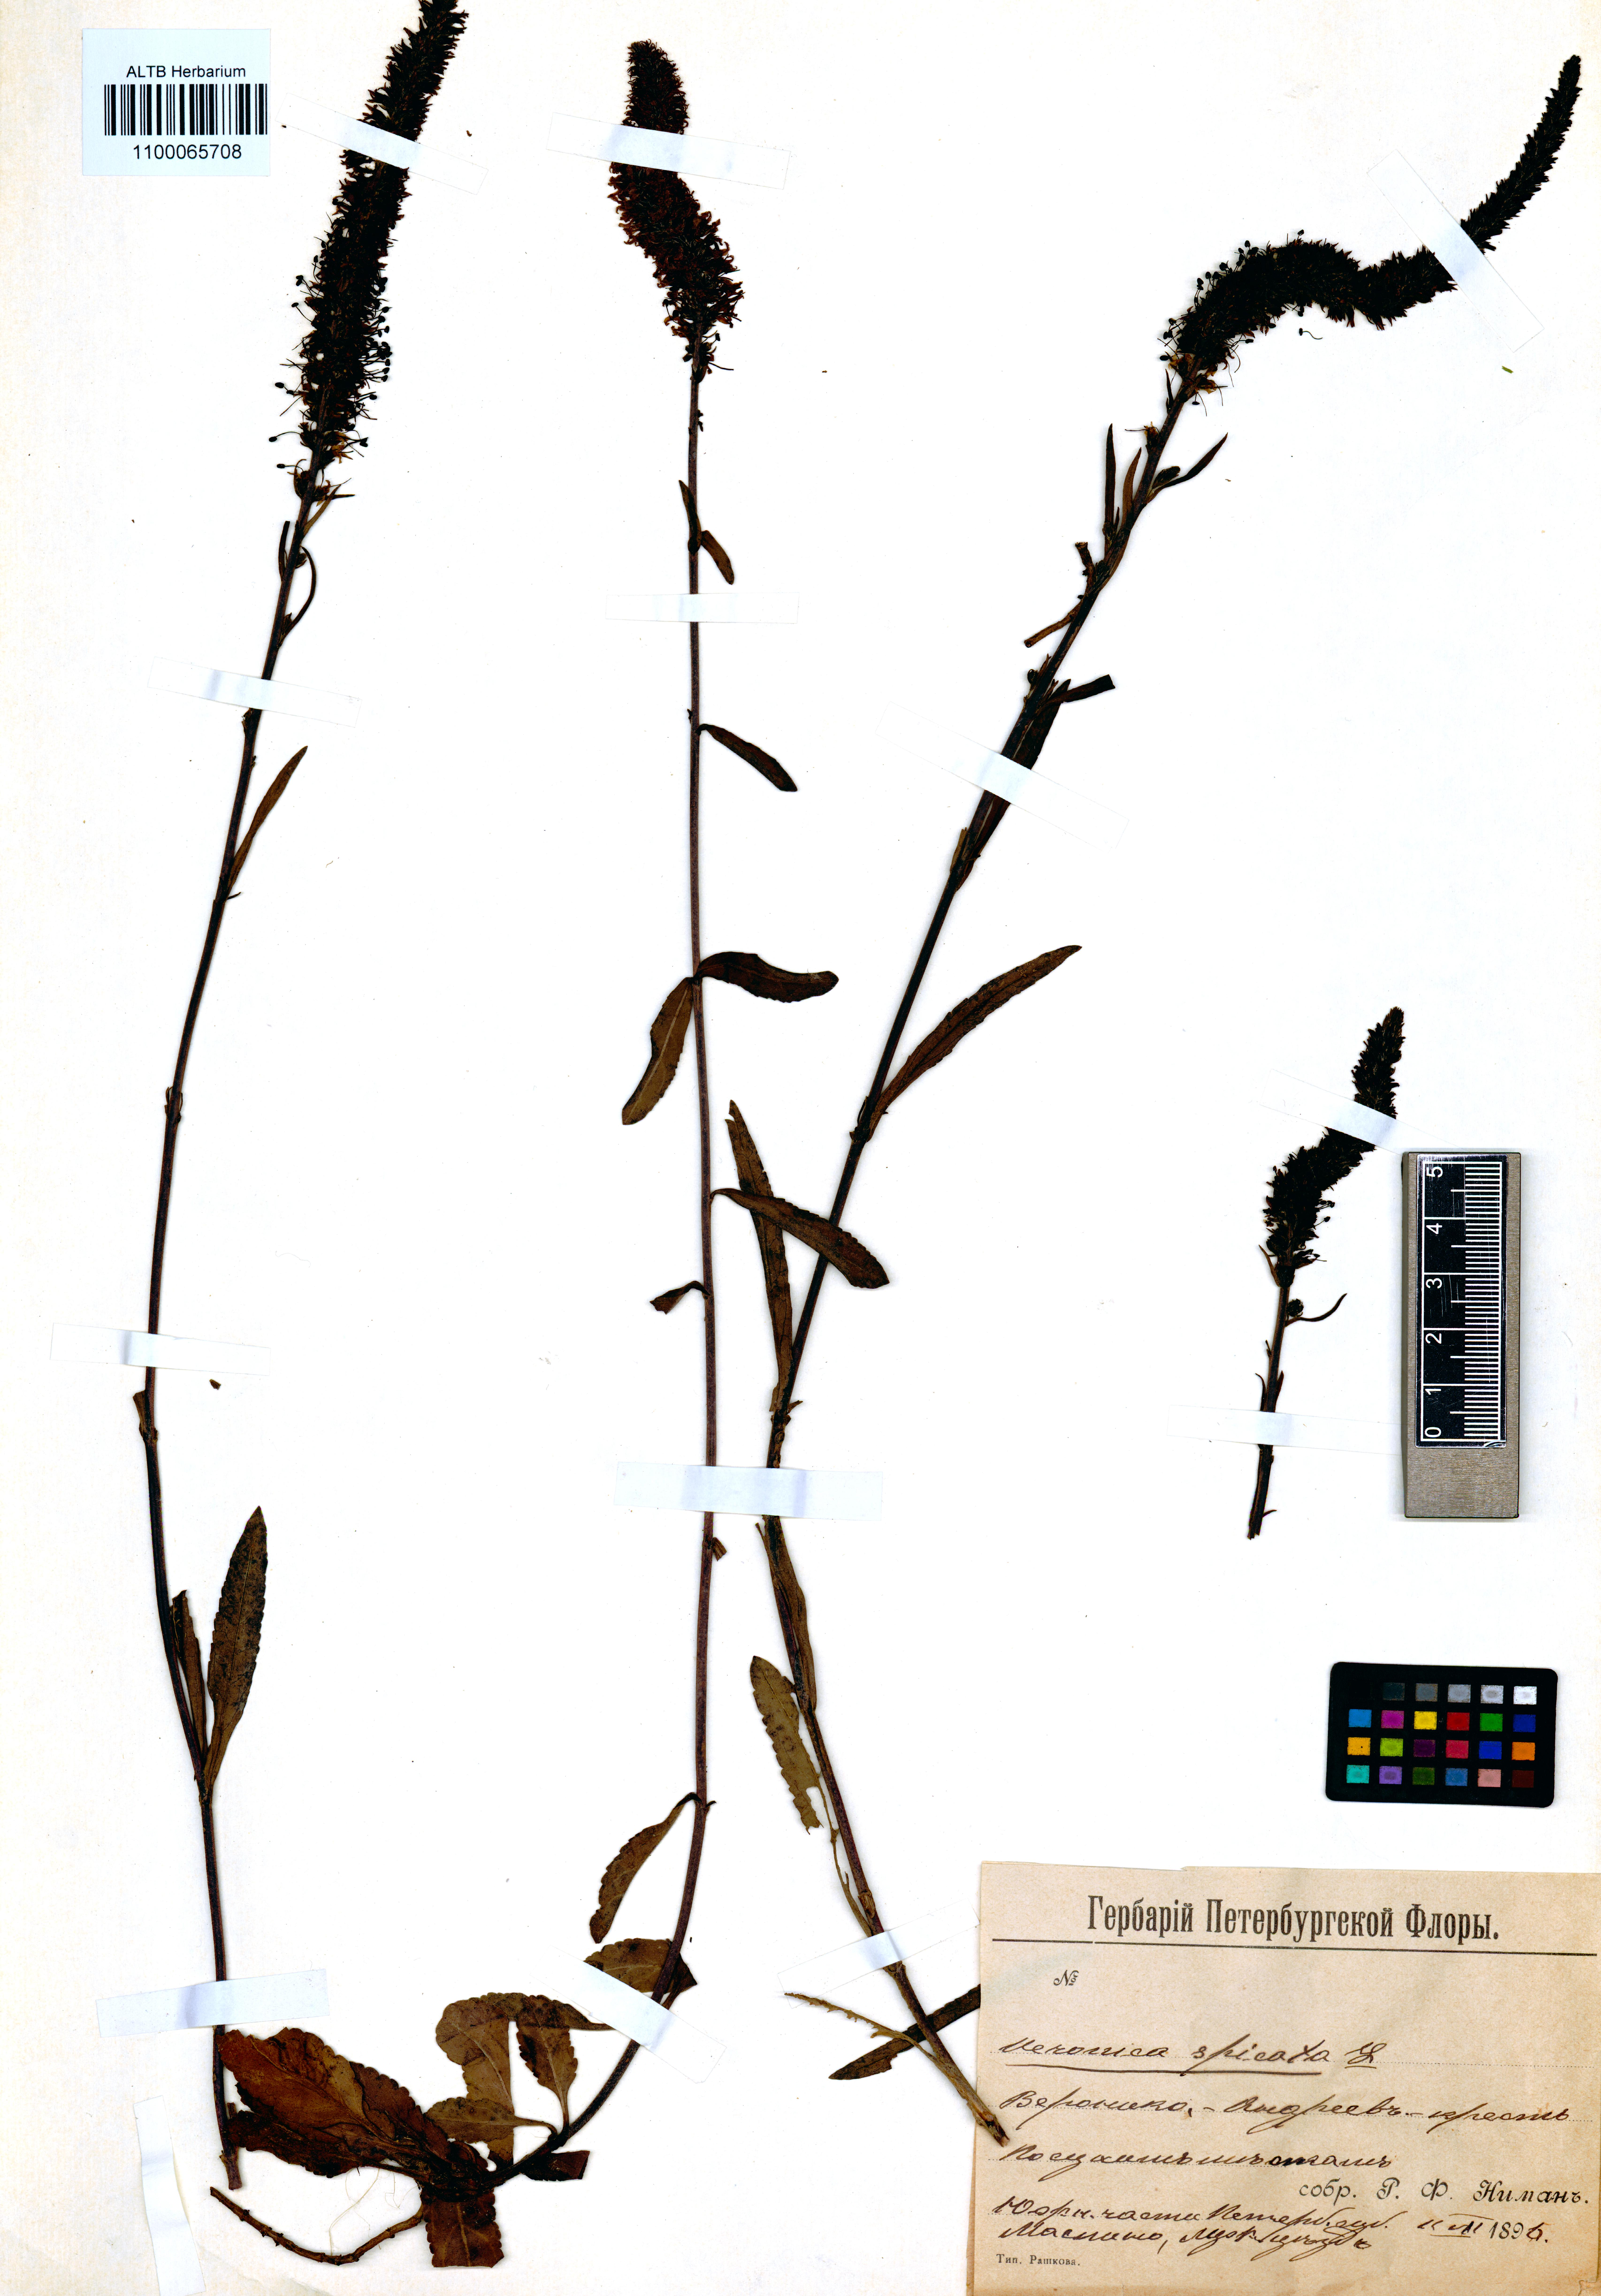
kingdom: Plantae
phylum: Tracheophyta
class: Magnoliopsida
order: Lamiales
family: Plantaginaceae
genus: Veronica
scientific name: Veronica spicata
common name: Spiked speedwell
